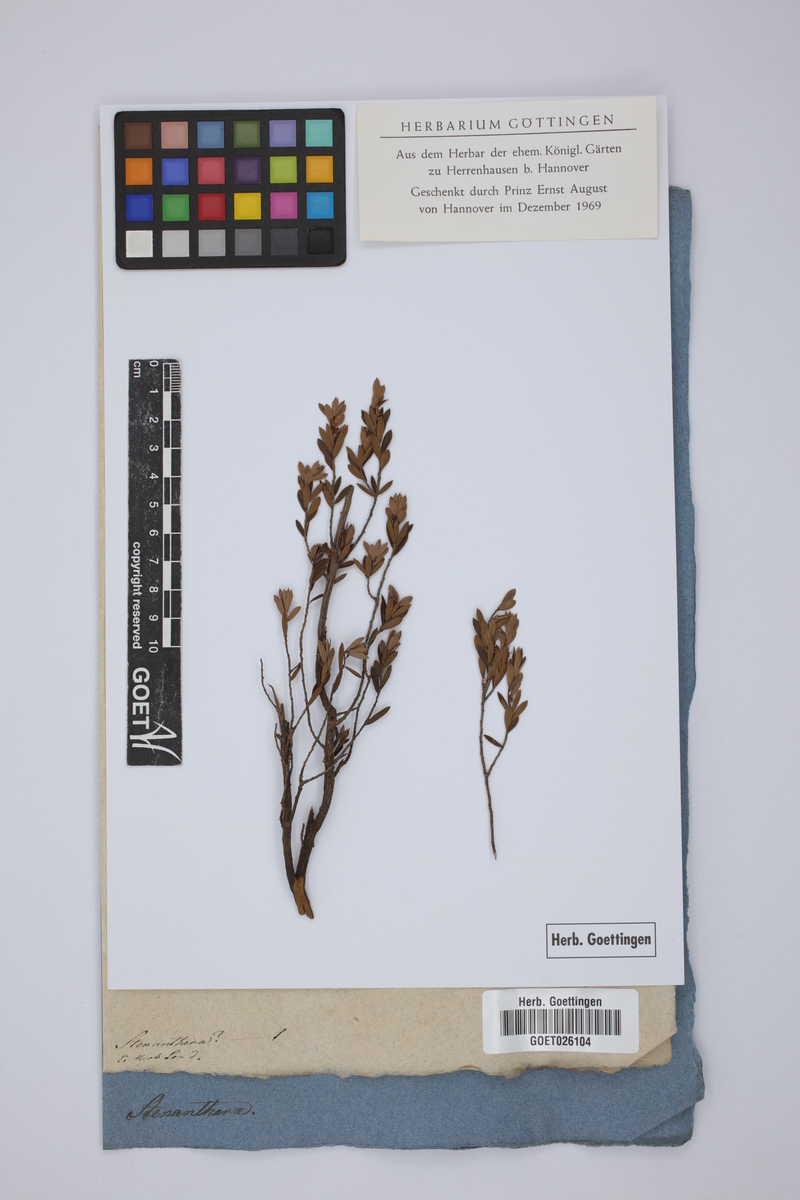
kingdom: Plantae
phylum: Tracheophyta
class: Magnoliopsida
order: Ericales
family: Ericaceae
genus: Stenanthera
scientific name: Stenanthera
